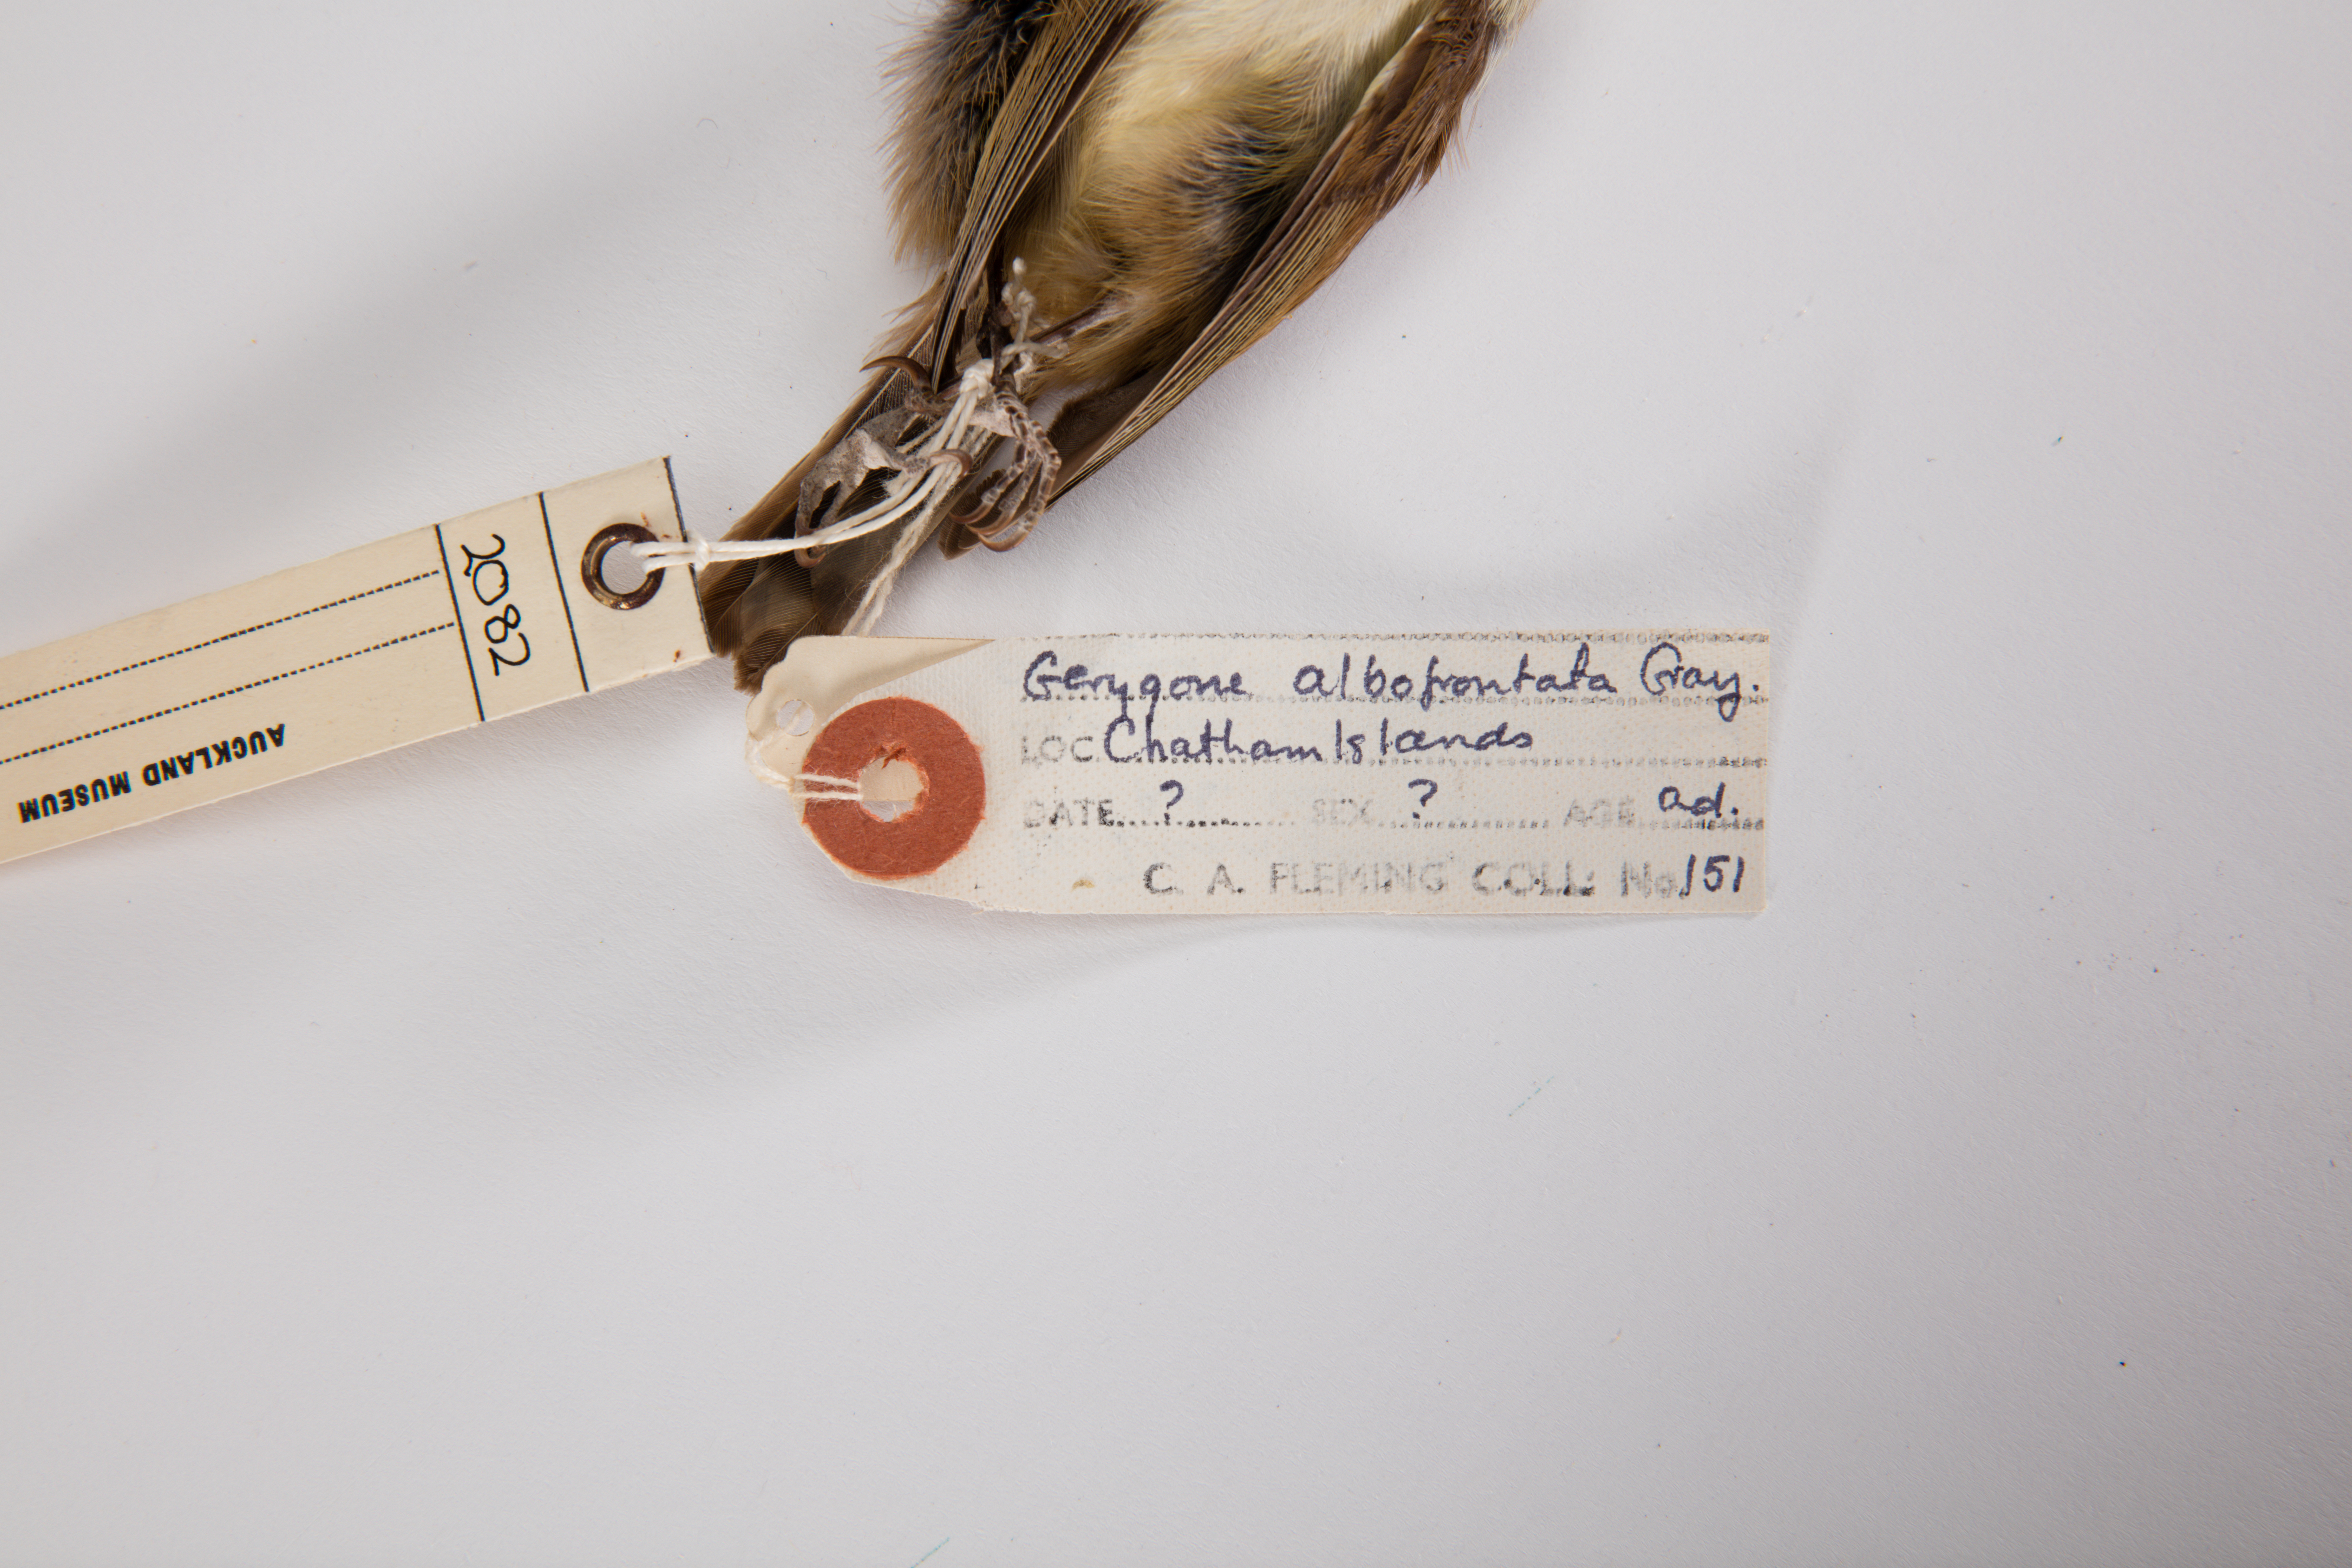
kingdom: Animalia
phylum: Chordata
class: Aves
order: Passeriformes
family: Acanthizidae
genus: Gerygone
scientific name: Gerygone albofrontata
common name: Chatham gerygone
